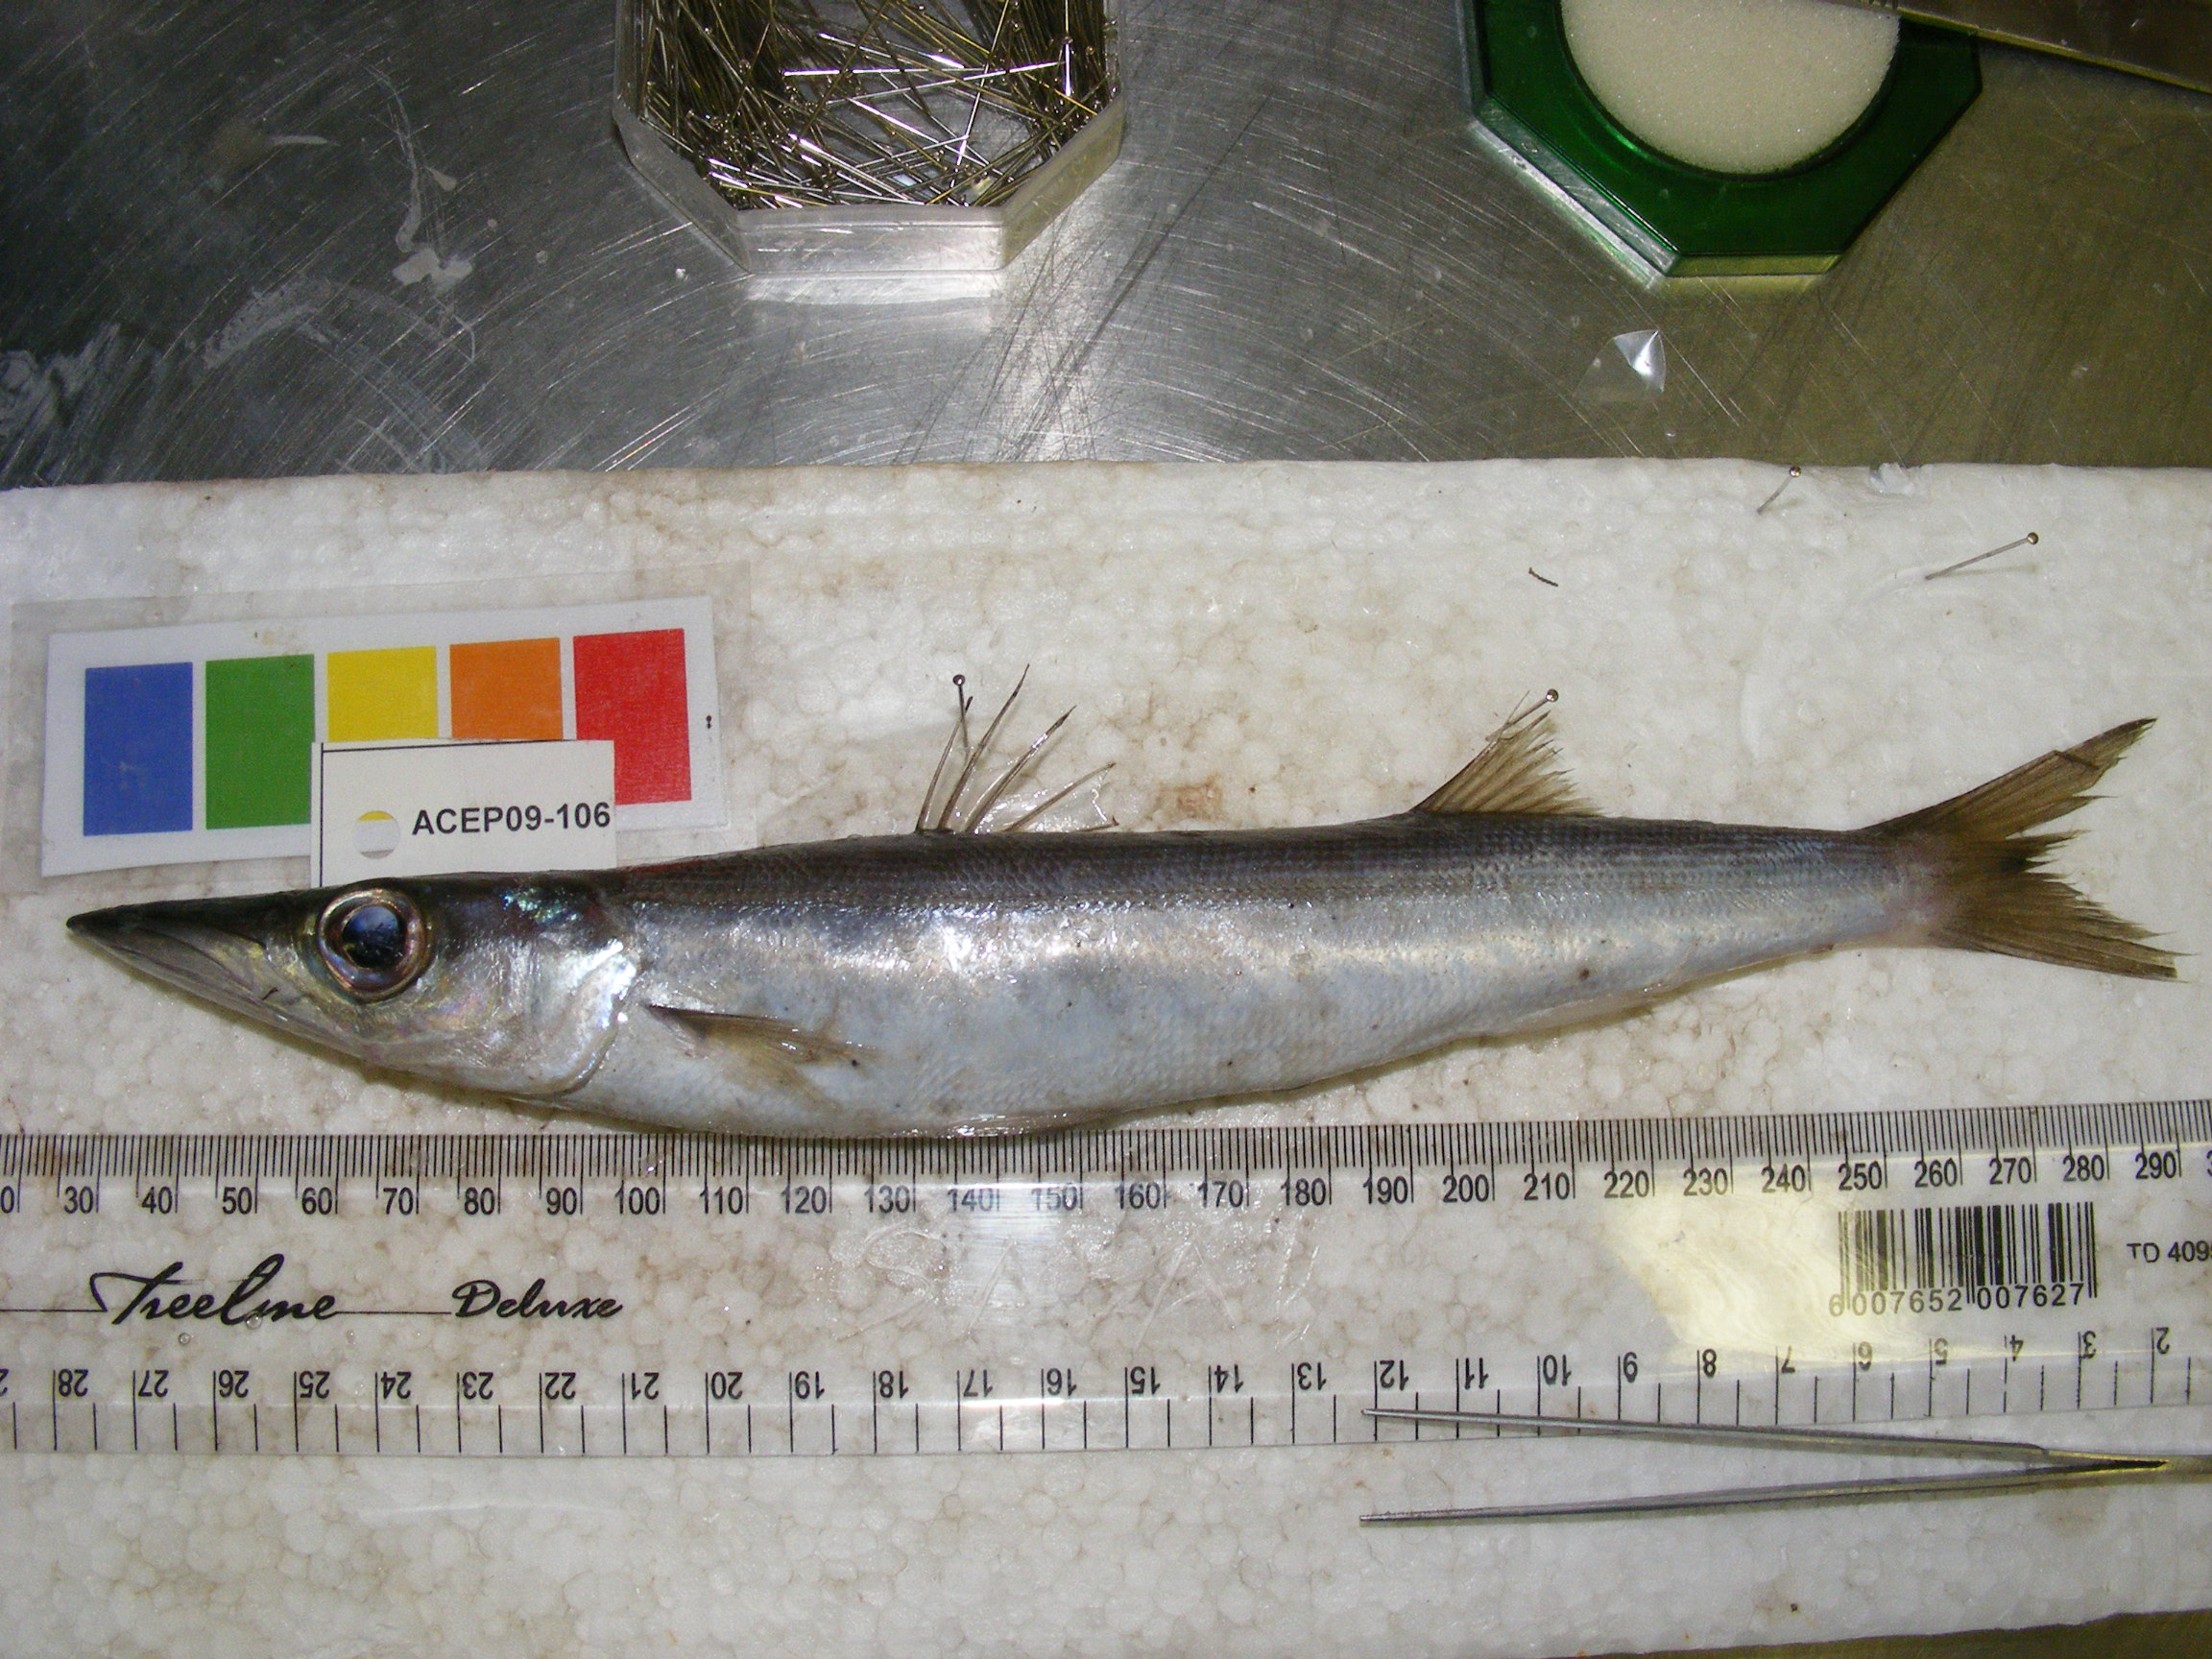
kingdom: Animalia
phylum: Chordata
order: Perciformes
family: Sphyraenidae
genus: Sphyraena
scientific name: Sphyraena chrysotaenia
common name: Yellowstripe barracuda
